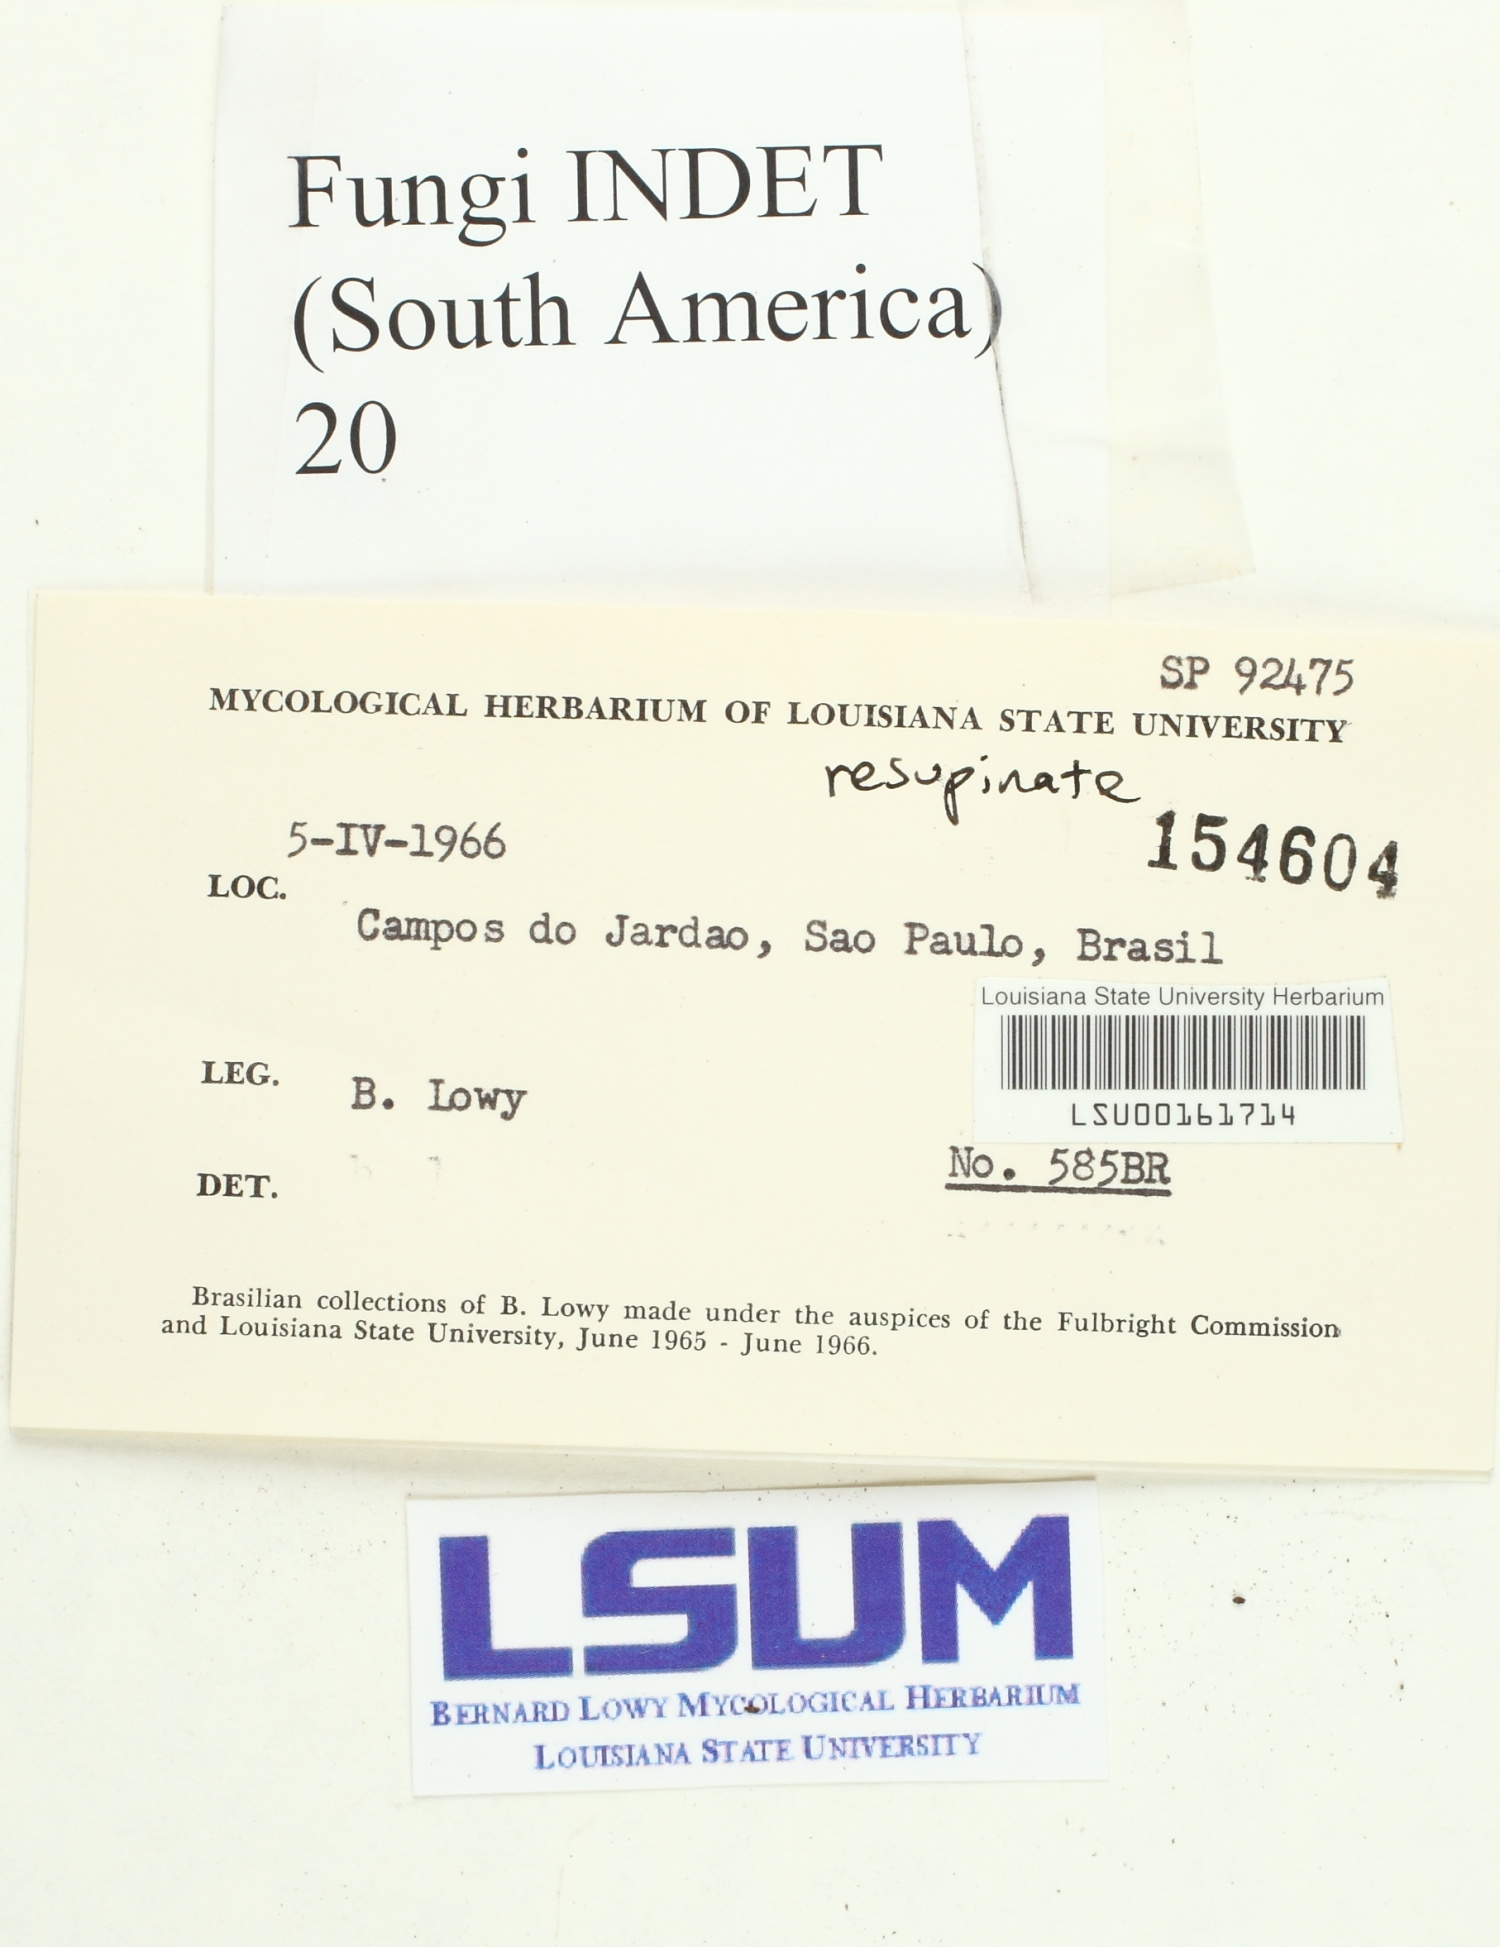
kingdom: Fungi
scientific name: Fungi
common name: Fungi
